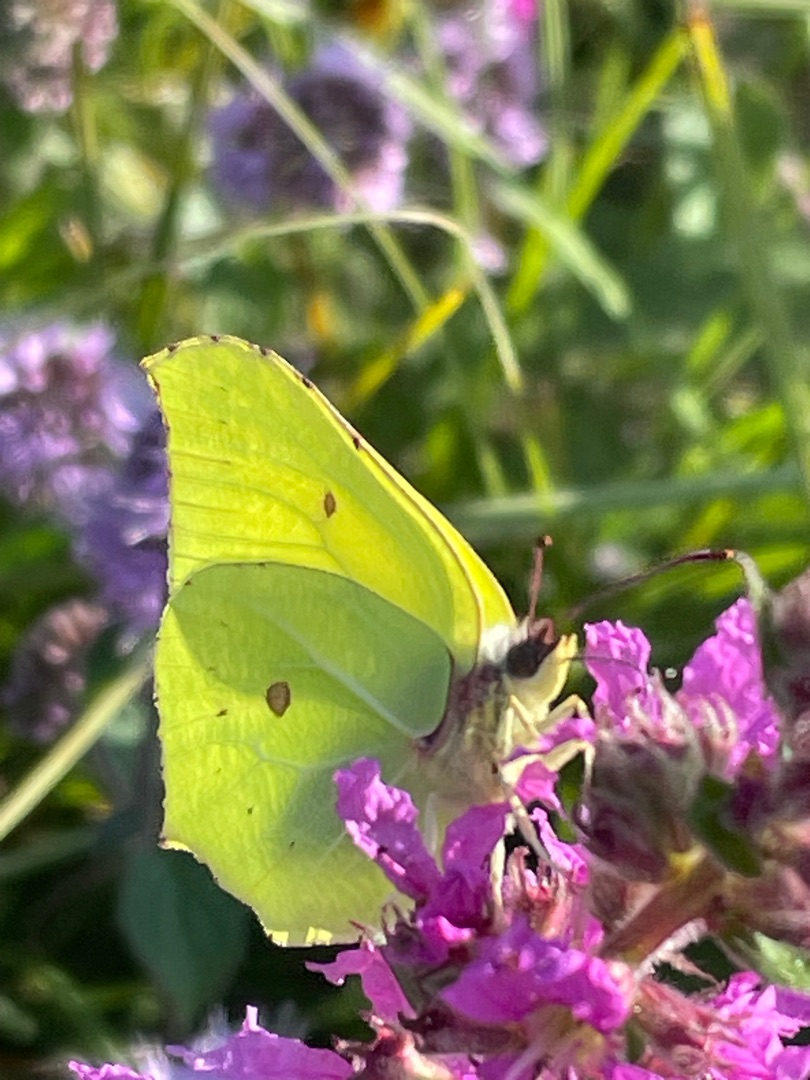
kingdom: Animalia
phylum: Arthropoda
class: Insecta
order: Lepidoptera
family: Pieridae
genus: Gonepteryx
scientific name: Gonepteryx rhamni
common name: Citronsommerfugl
